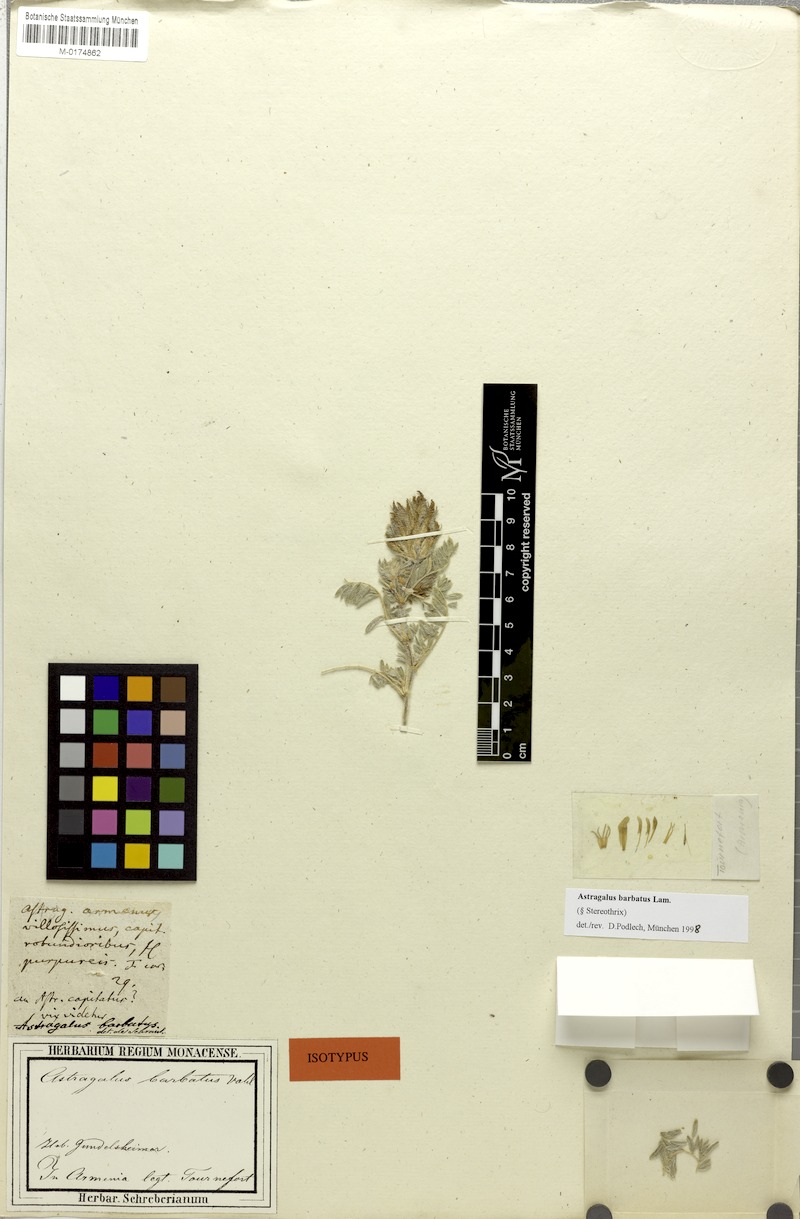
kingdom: Plantae
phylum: Tracheophyta
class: Magnoliopsida
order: Fabales
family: Fabaceae
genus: Astragalus
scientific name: Astragalus barbatus
